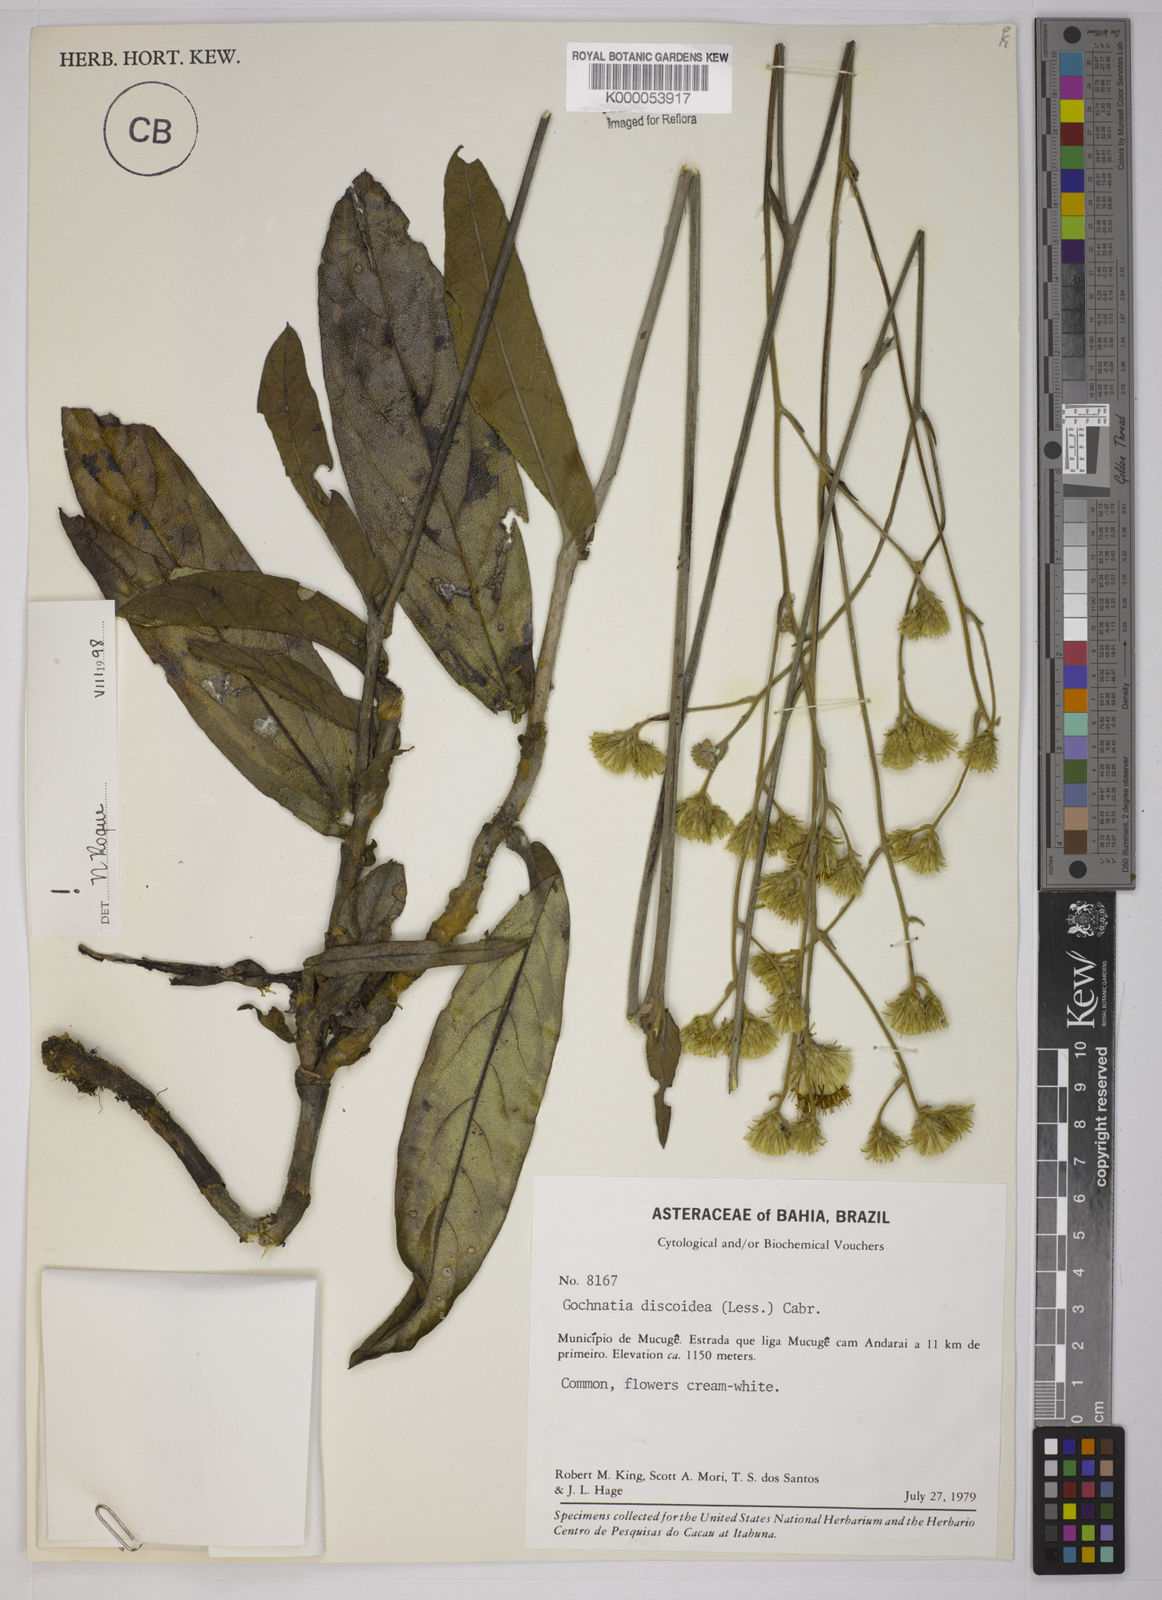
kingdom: Plantae
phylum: Tracheophyta
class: Magnoliopsida
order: Asterales
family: Asteraceae
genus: Richterago
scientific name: Richterago discoidea
